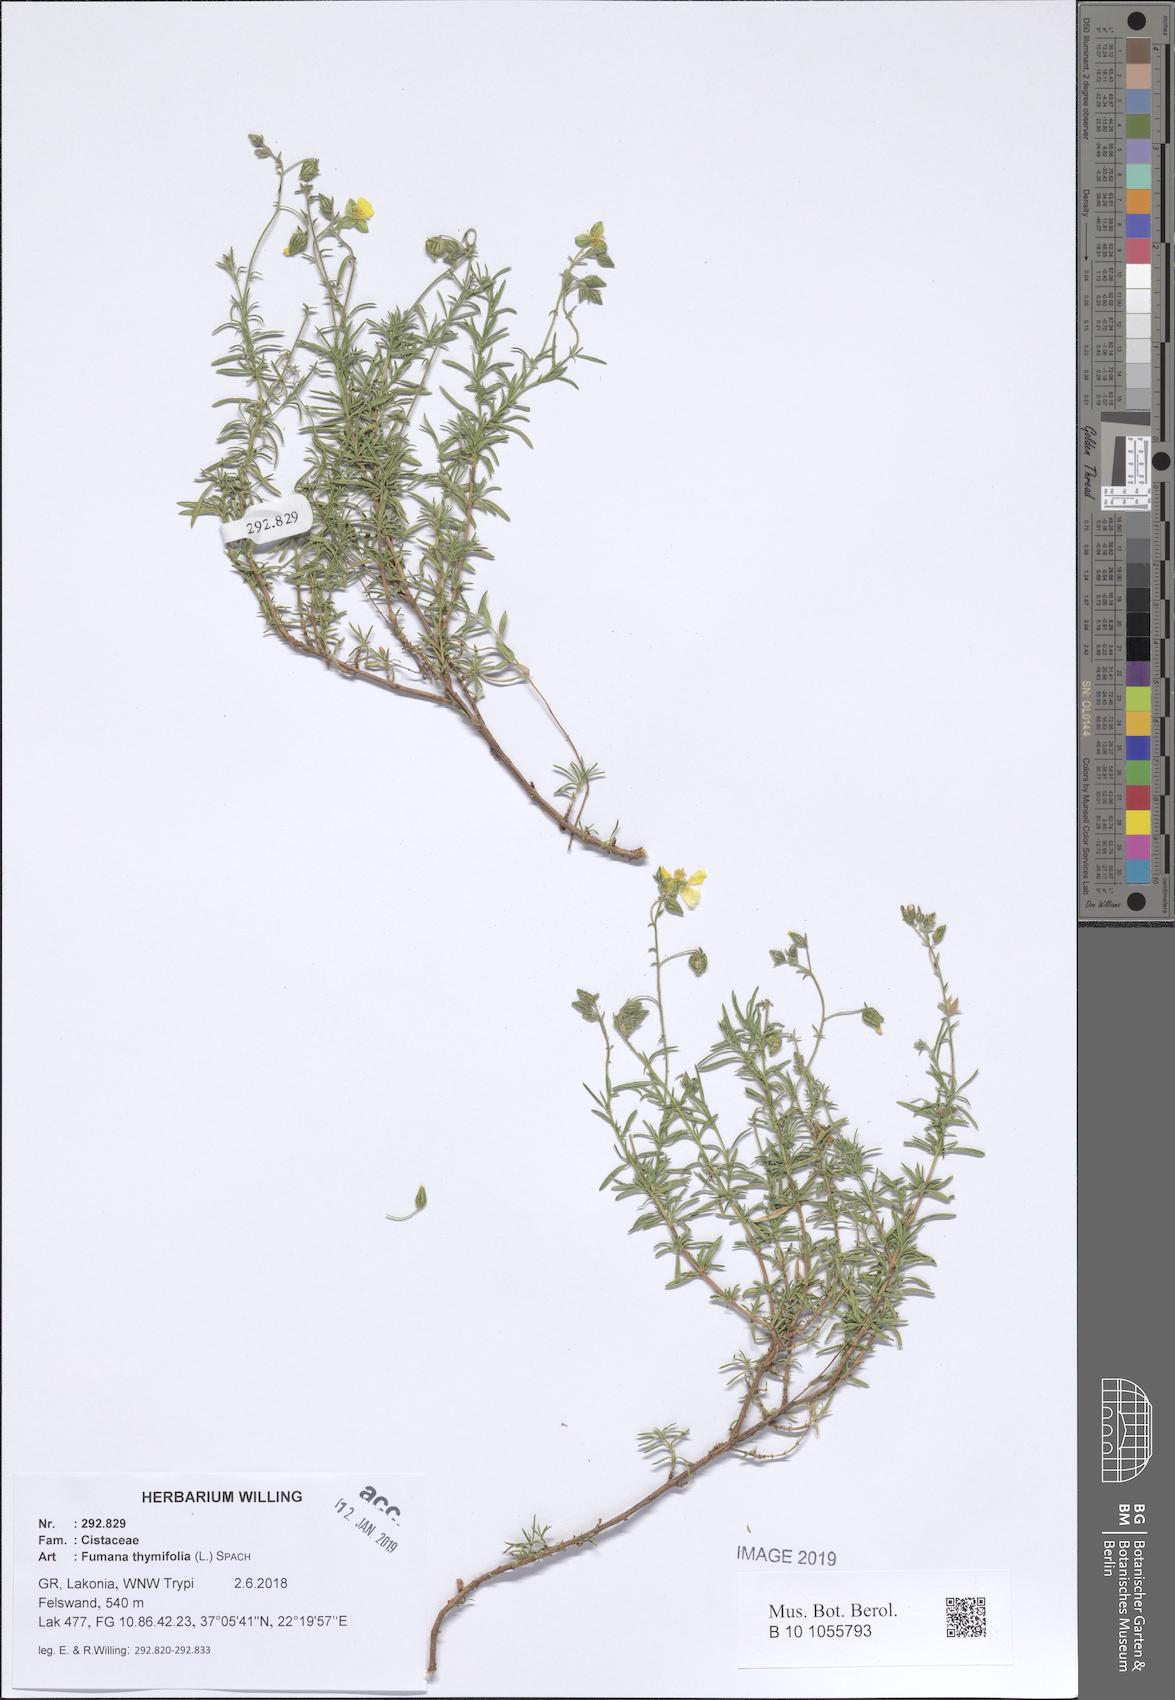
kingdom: Plantae
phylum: Tracheophyta
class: Magnoliopsida
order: Malvales
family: Cistaceae
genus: Fumana
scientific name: Fumana thymifolia
